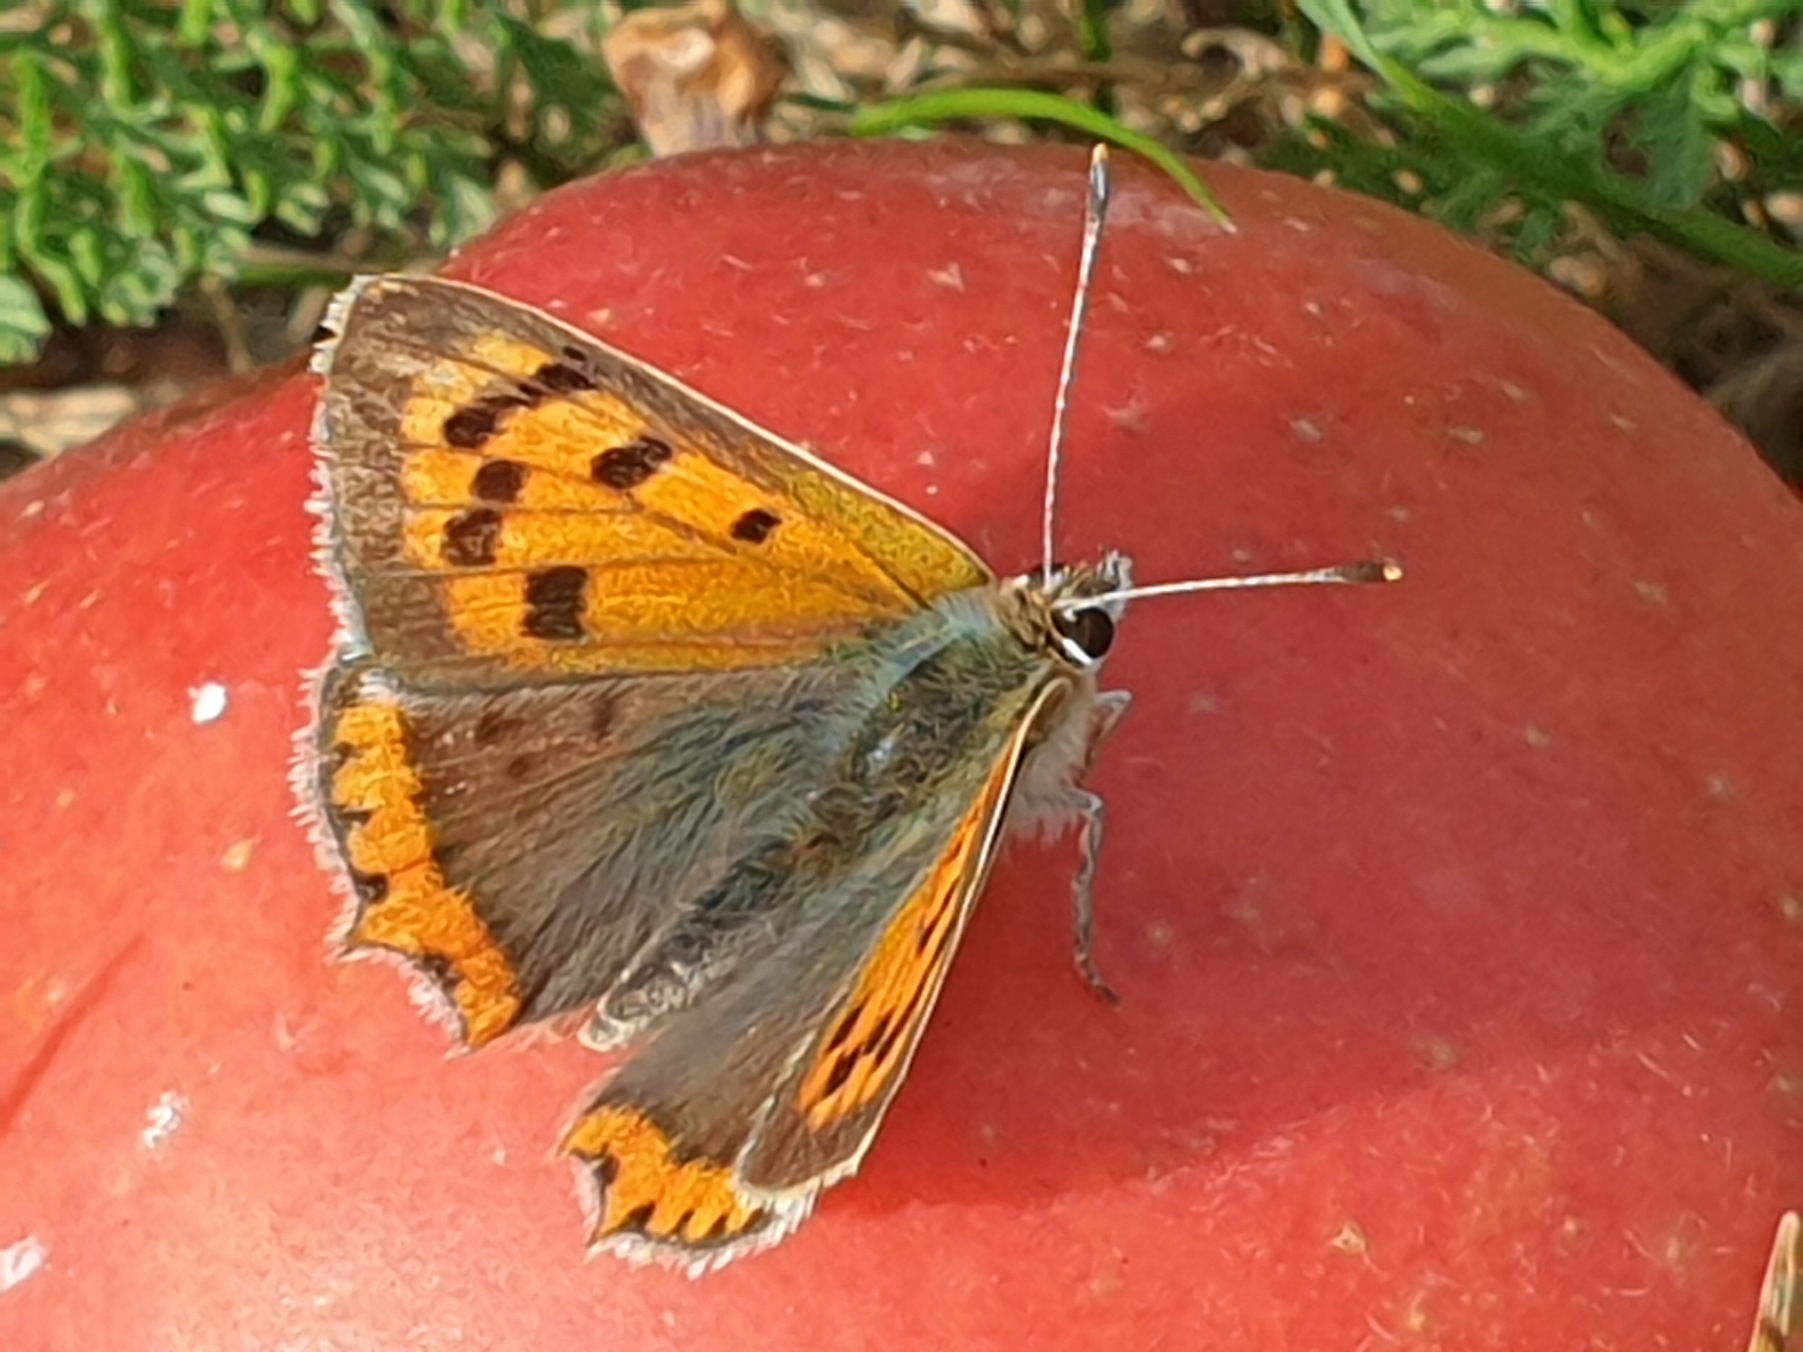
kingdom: Animalia
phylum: Arthropoda
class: Insecta
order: Lepidoptera
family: Lycaenidae
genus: Lycaena
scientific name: Lycaena phlaeas
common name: Lille ildfugl
